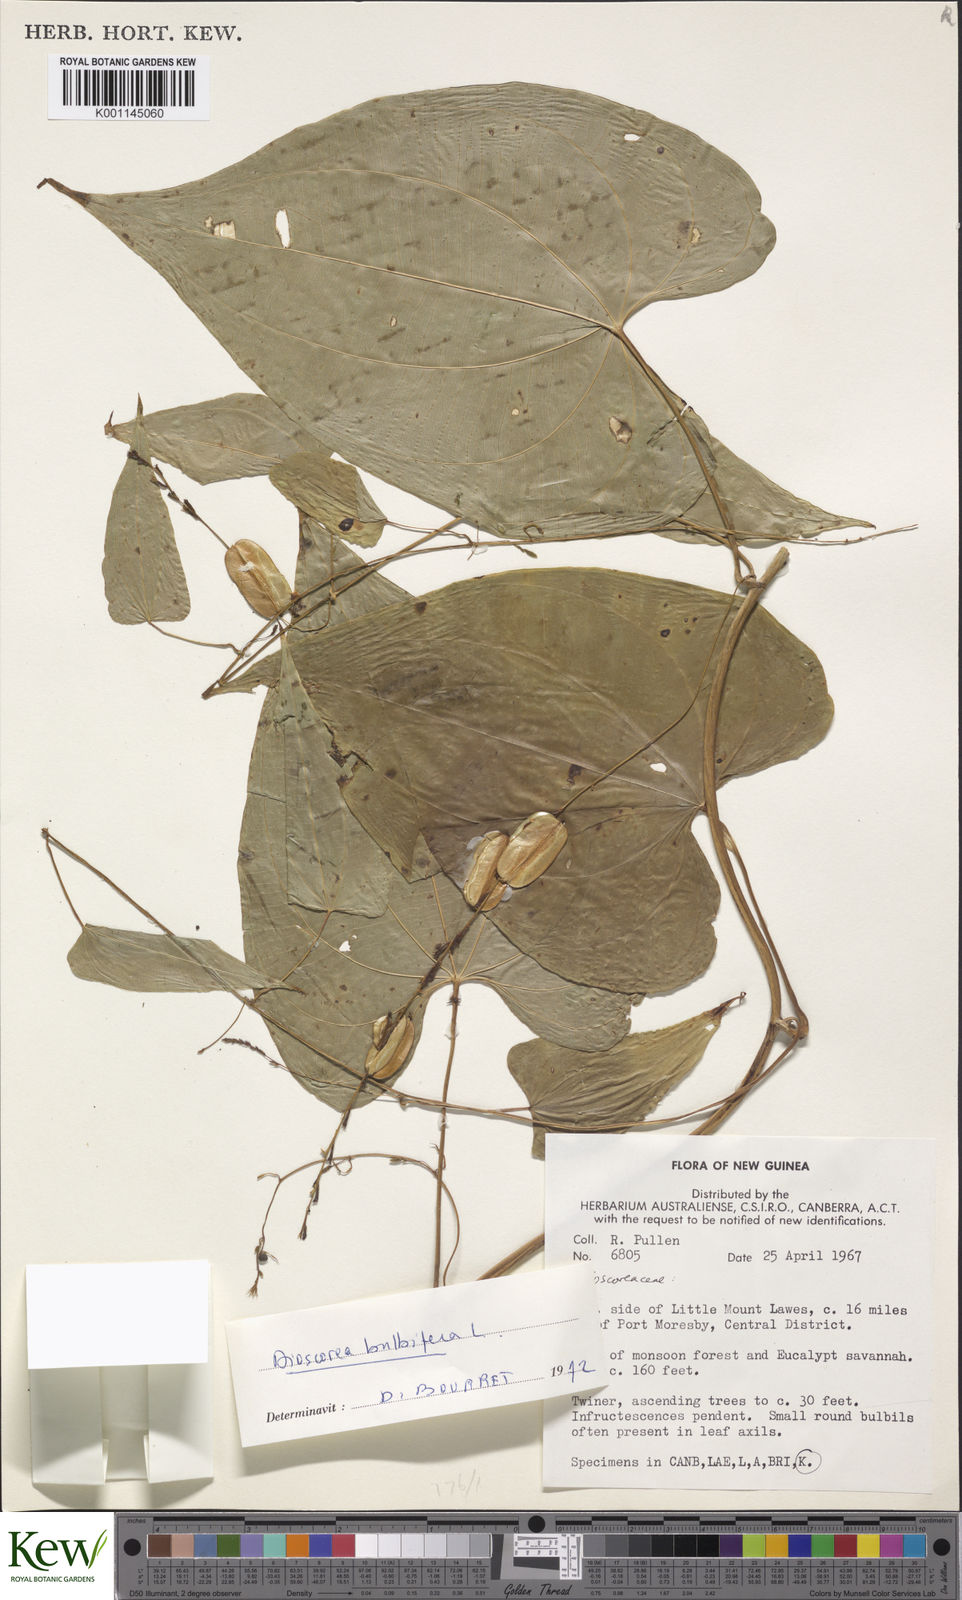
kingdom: Plantae
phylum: Tracheophyta
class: Liliopsida
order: Dioscoreales
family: Dioscoreaceae
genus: Dioscorea
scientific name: Dioscorea
